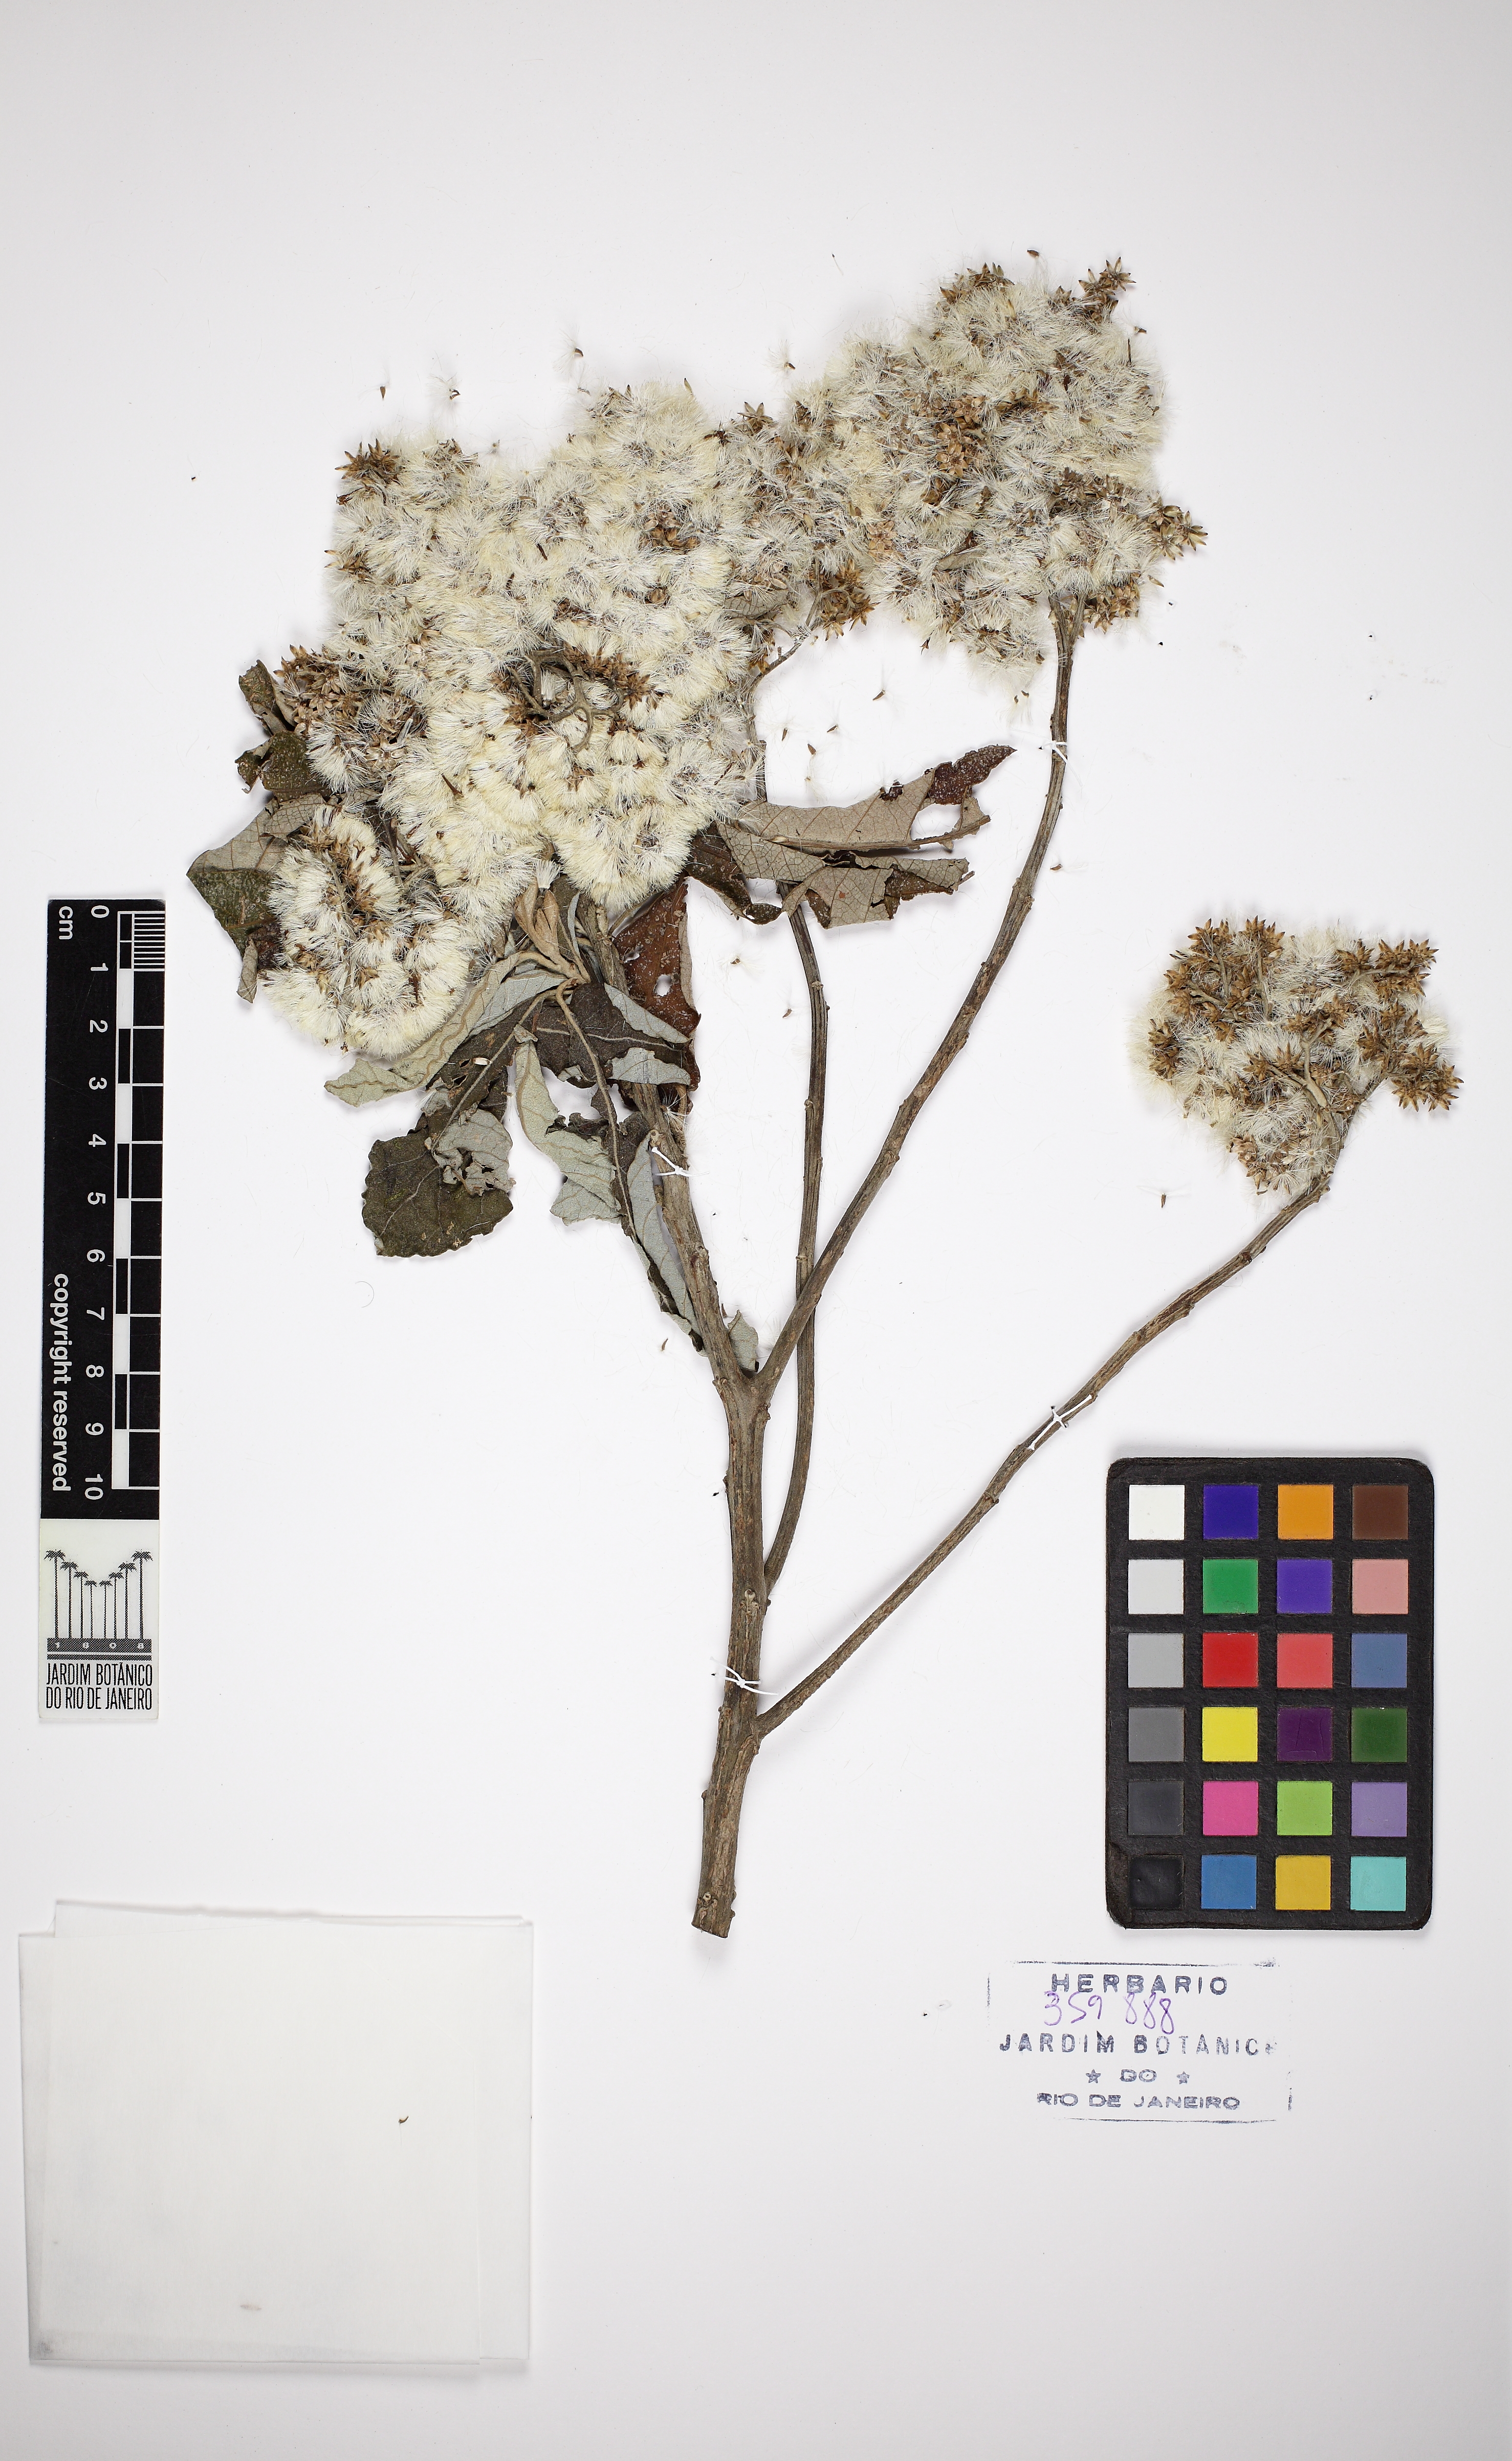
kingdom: Plantae
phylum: Tracheophyta
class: Magnoliopsida
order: Asterales
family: Asteraceae
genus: Vernonanthura
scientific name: Vernonanthura discolor
